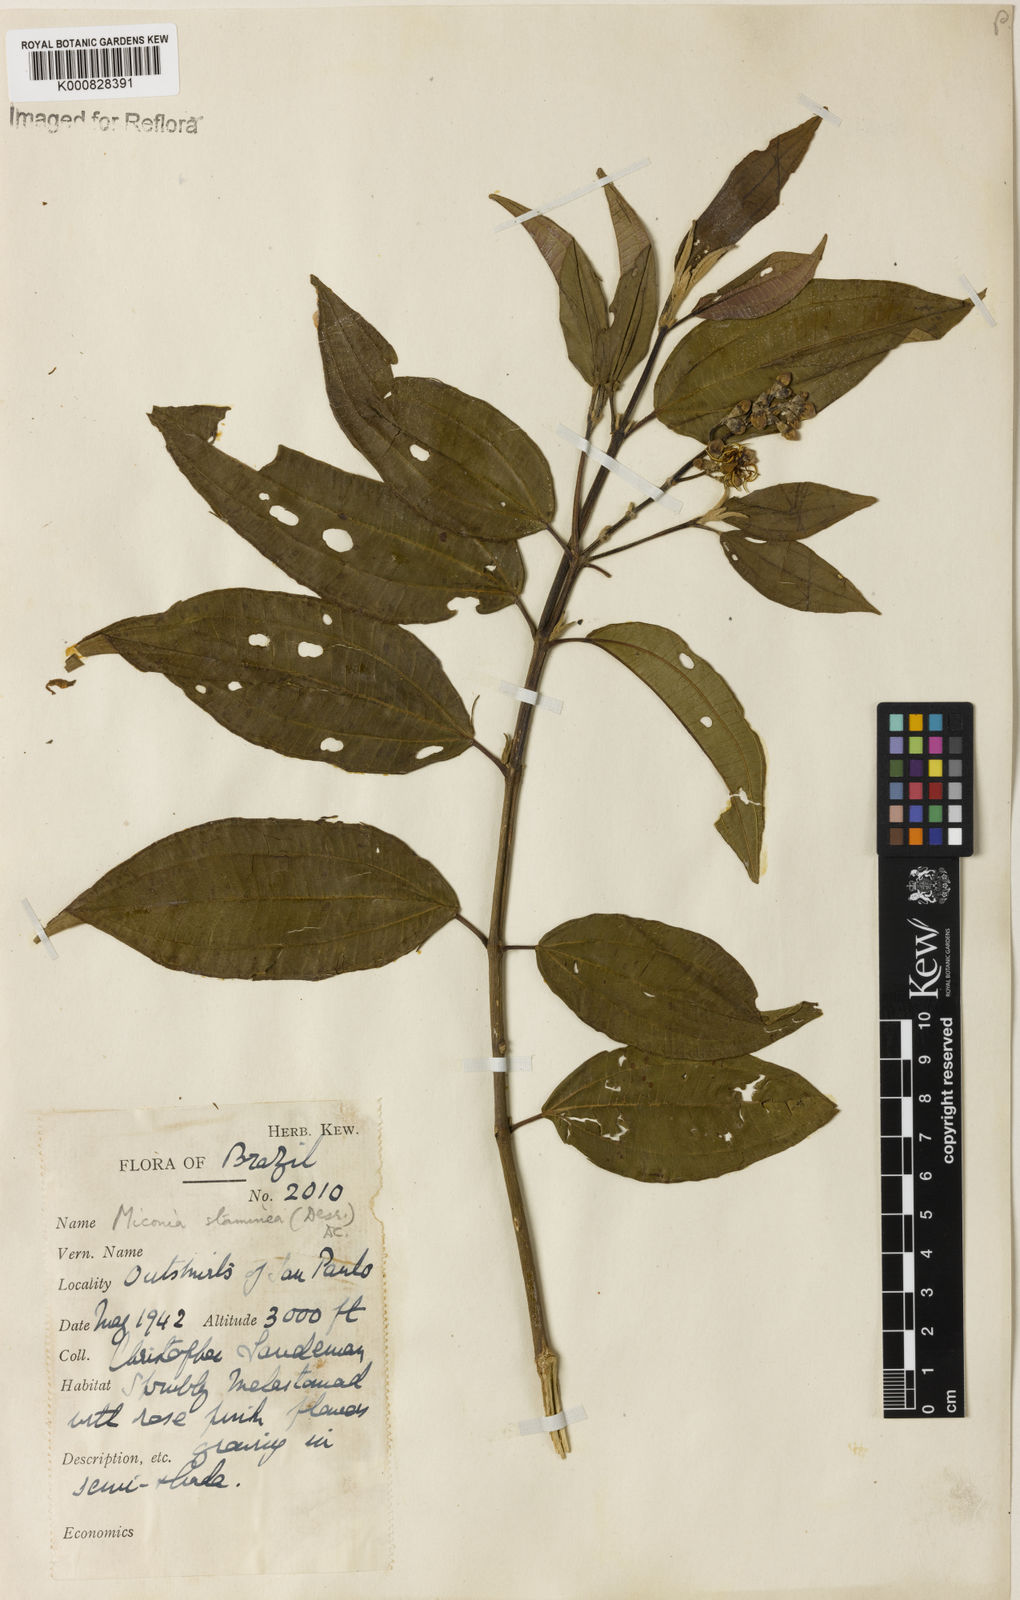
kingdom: Plantae
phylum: Tracheophyta
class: Magnoliopsida
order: Myrtales
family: Melastomataceae
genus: Miconia
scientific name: Miconia staminea
